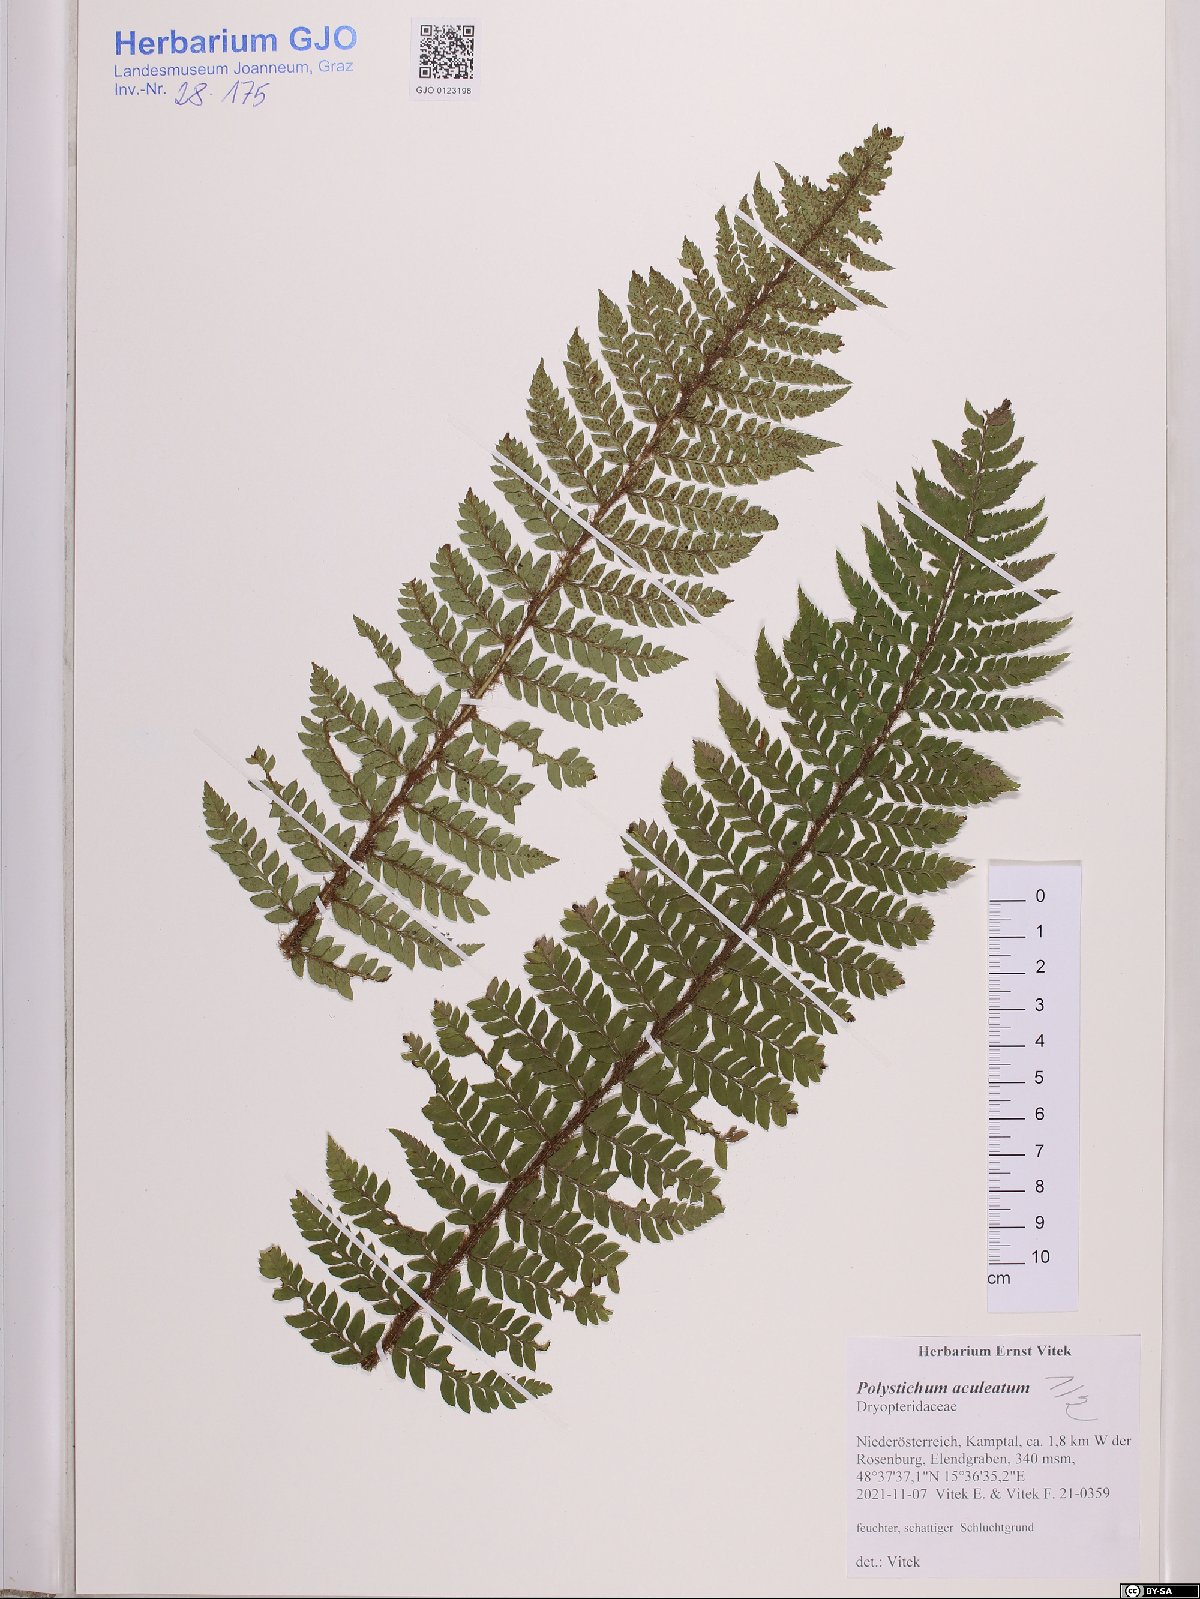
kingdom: Plantae
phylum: Tracheophyta
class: Polypodiopsida
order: Polypodiales
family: Dryopteridaceae
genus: Polystichum
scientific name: Polystichum aculeatum
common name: Hard shield-fern
